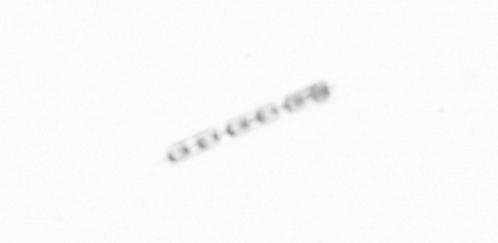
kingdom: Chromista
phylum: Ochrophyta
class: Bacillariophyceae
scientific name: Bacillariophyceae
